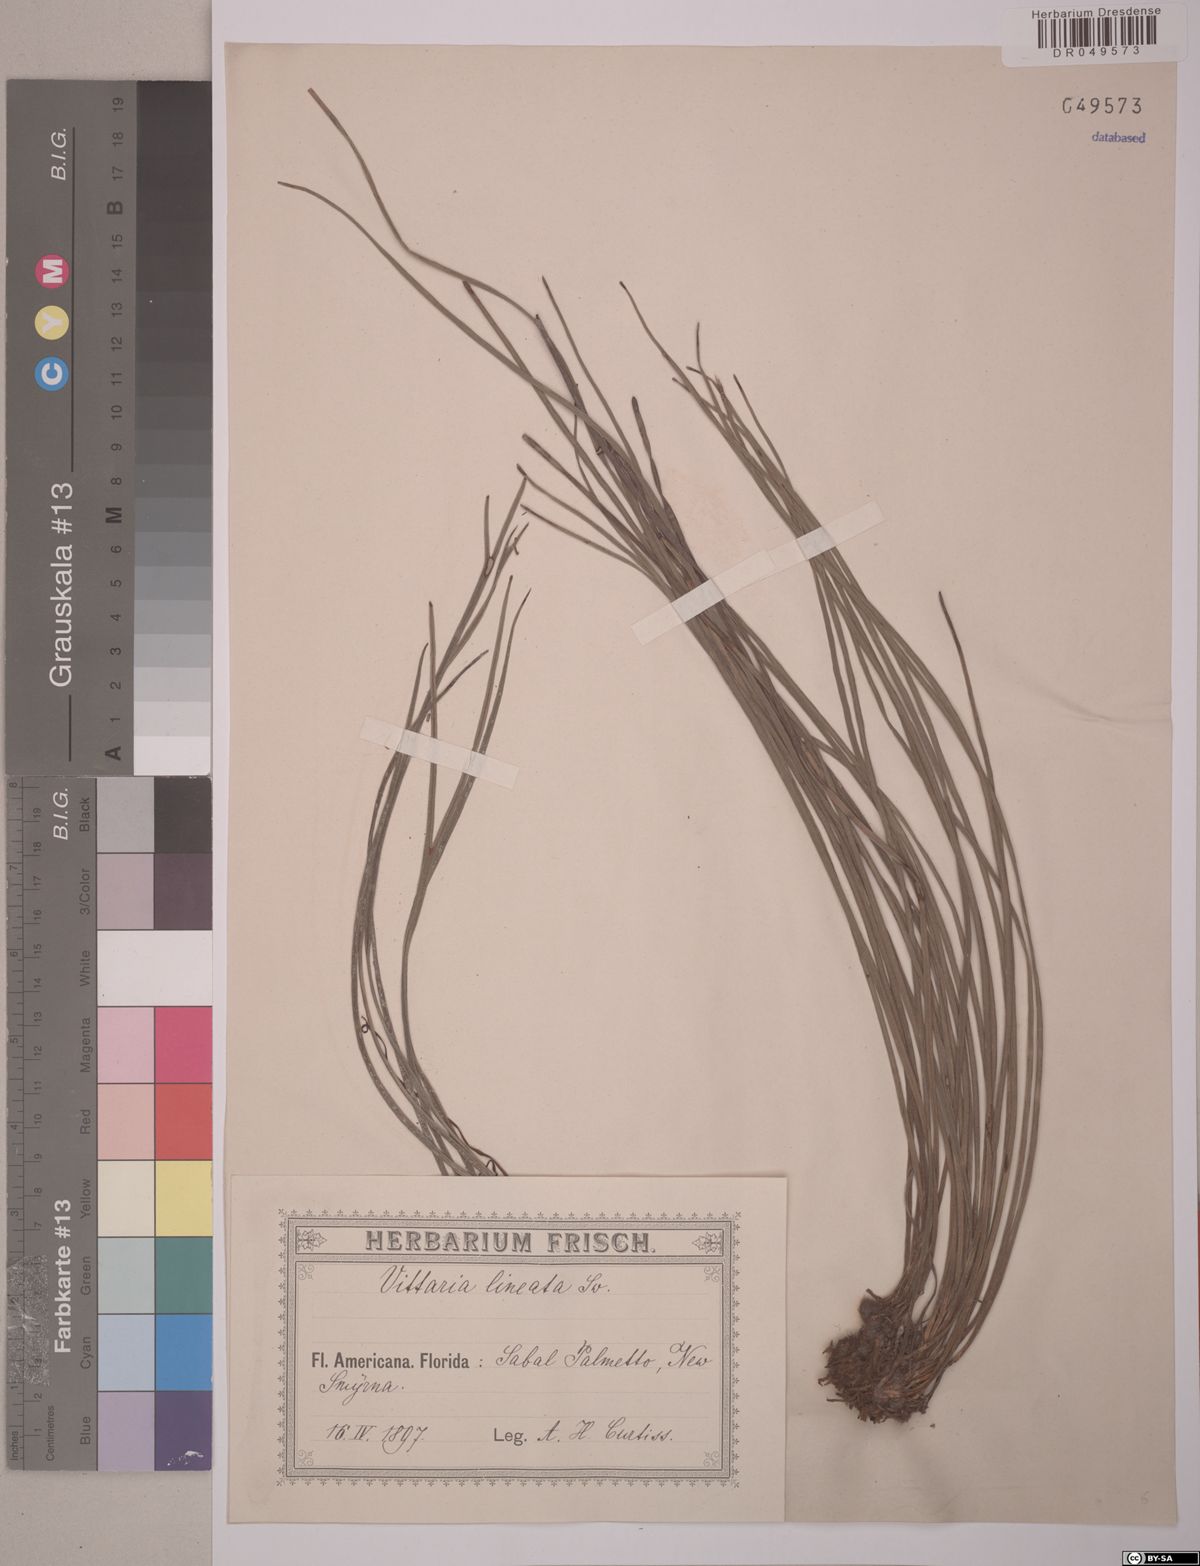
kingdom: Plantae
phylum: Tracheophyta
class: Polypodiopsida
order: Polypodiales
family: Pteridaceae
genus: Vittaria
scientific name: Vittaria lineata
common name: Shoestring fern
